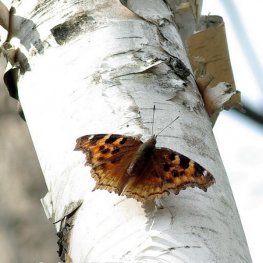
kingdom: Animalia
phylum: Arthropoda
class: Insecta
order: Lepidoptera
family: Nymphalidae
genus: Polygonia
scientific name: Polygonia vaualbum
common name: Compton Tortoiseshell
